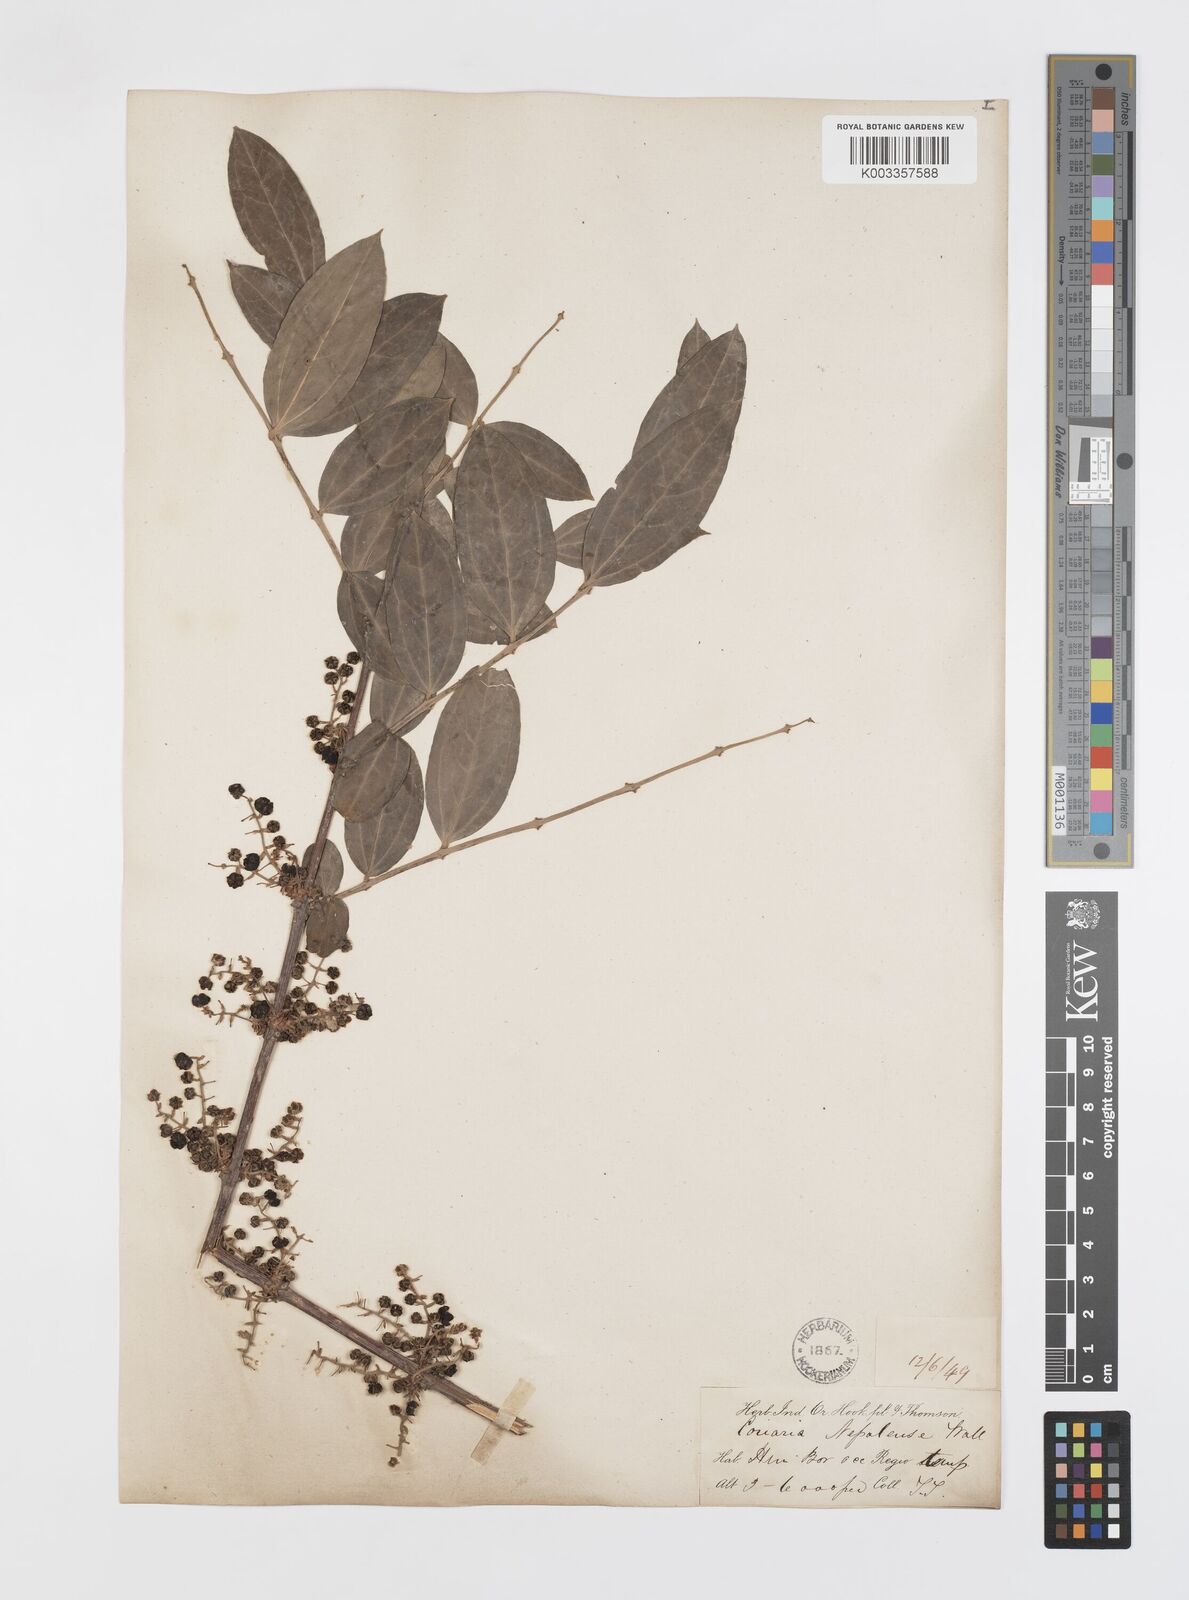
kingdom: Plantae
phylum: Tracheophyta
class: Magnoliopsida
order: Cucurbitales
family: Coriariaceae
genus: Coriaria
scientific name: Coriaria napalensis
